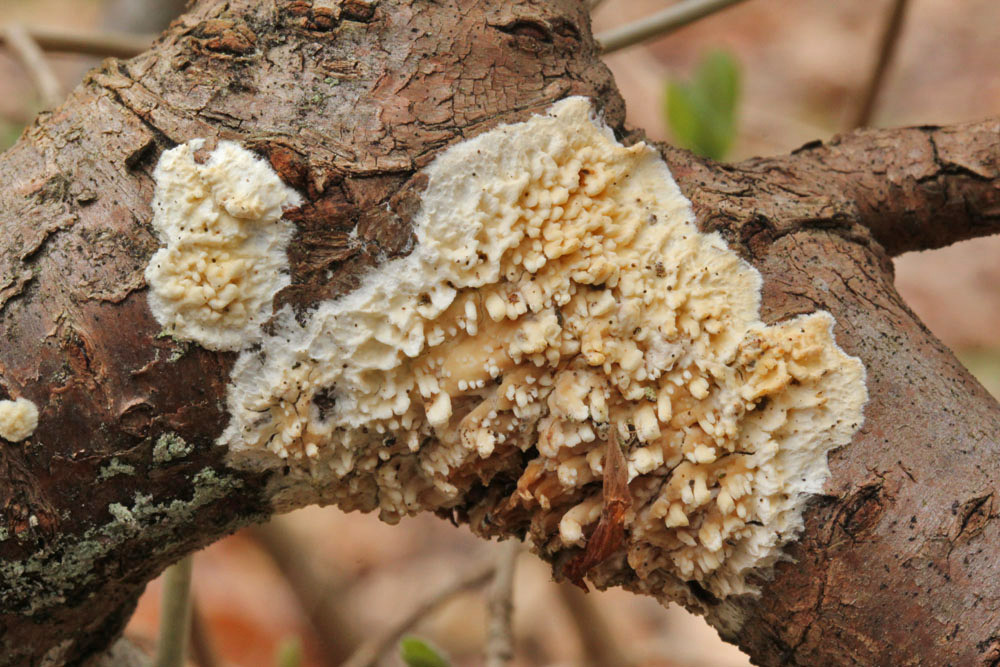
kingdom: Fungi
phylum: Basidiomycota
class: Agaricomycetes
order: Hymenochaetales
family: Schizoporaceae
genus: Xylodon
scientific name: Xylodon radula
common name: grovtandet kalkskind
